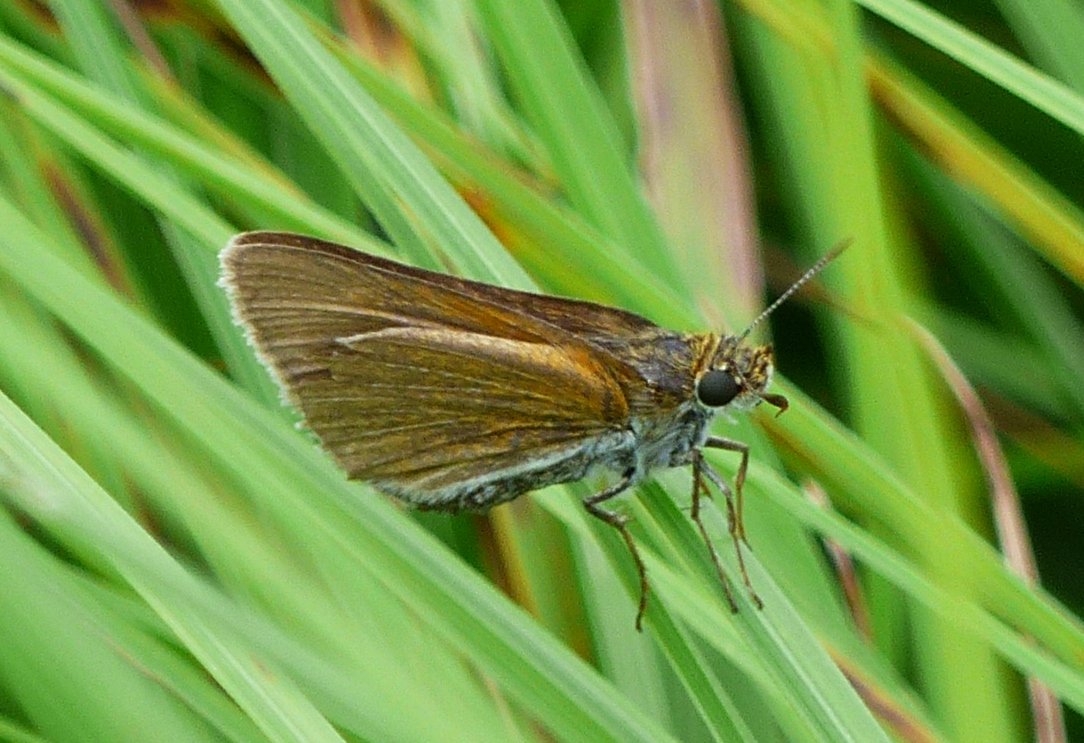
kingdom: Animalia
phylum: Arthropoda
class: Insecta
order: Lepidoptera
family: Hesperiidae
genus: Euphyes
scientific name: Euphyes bimacula
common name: Two-spotted Skipper
